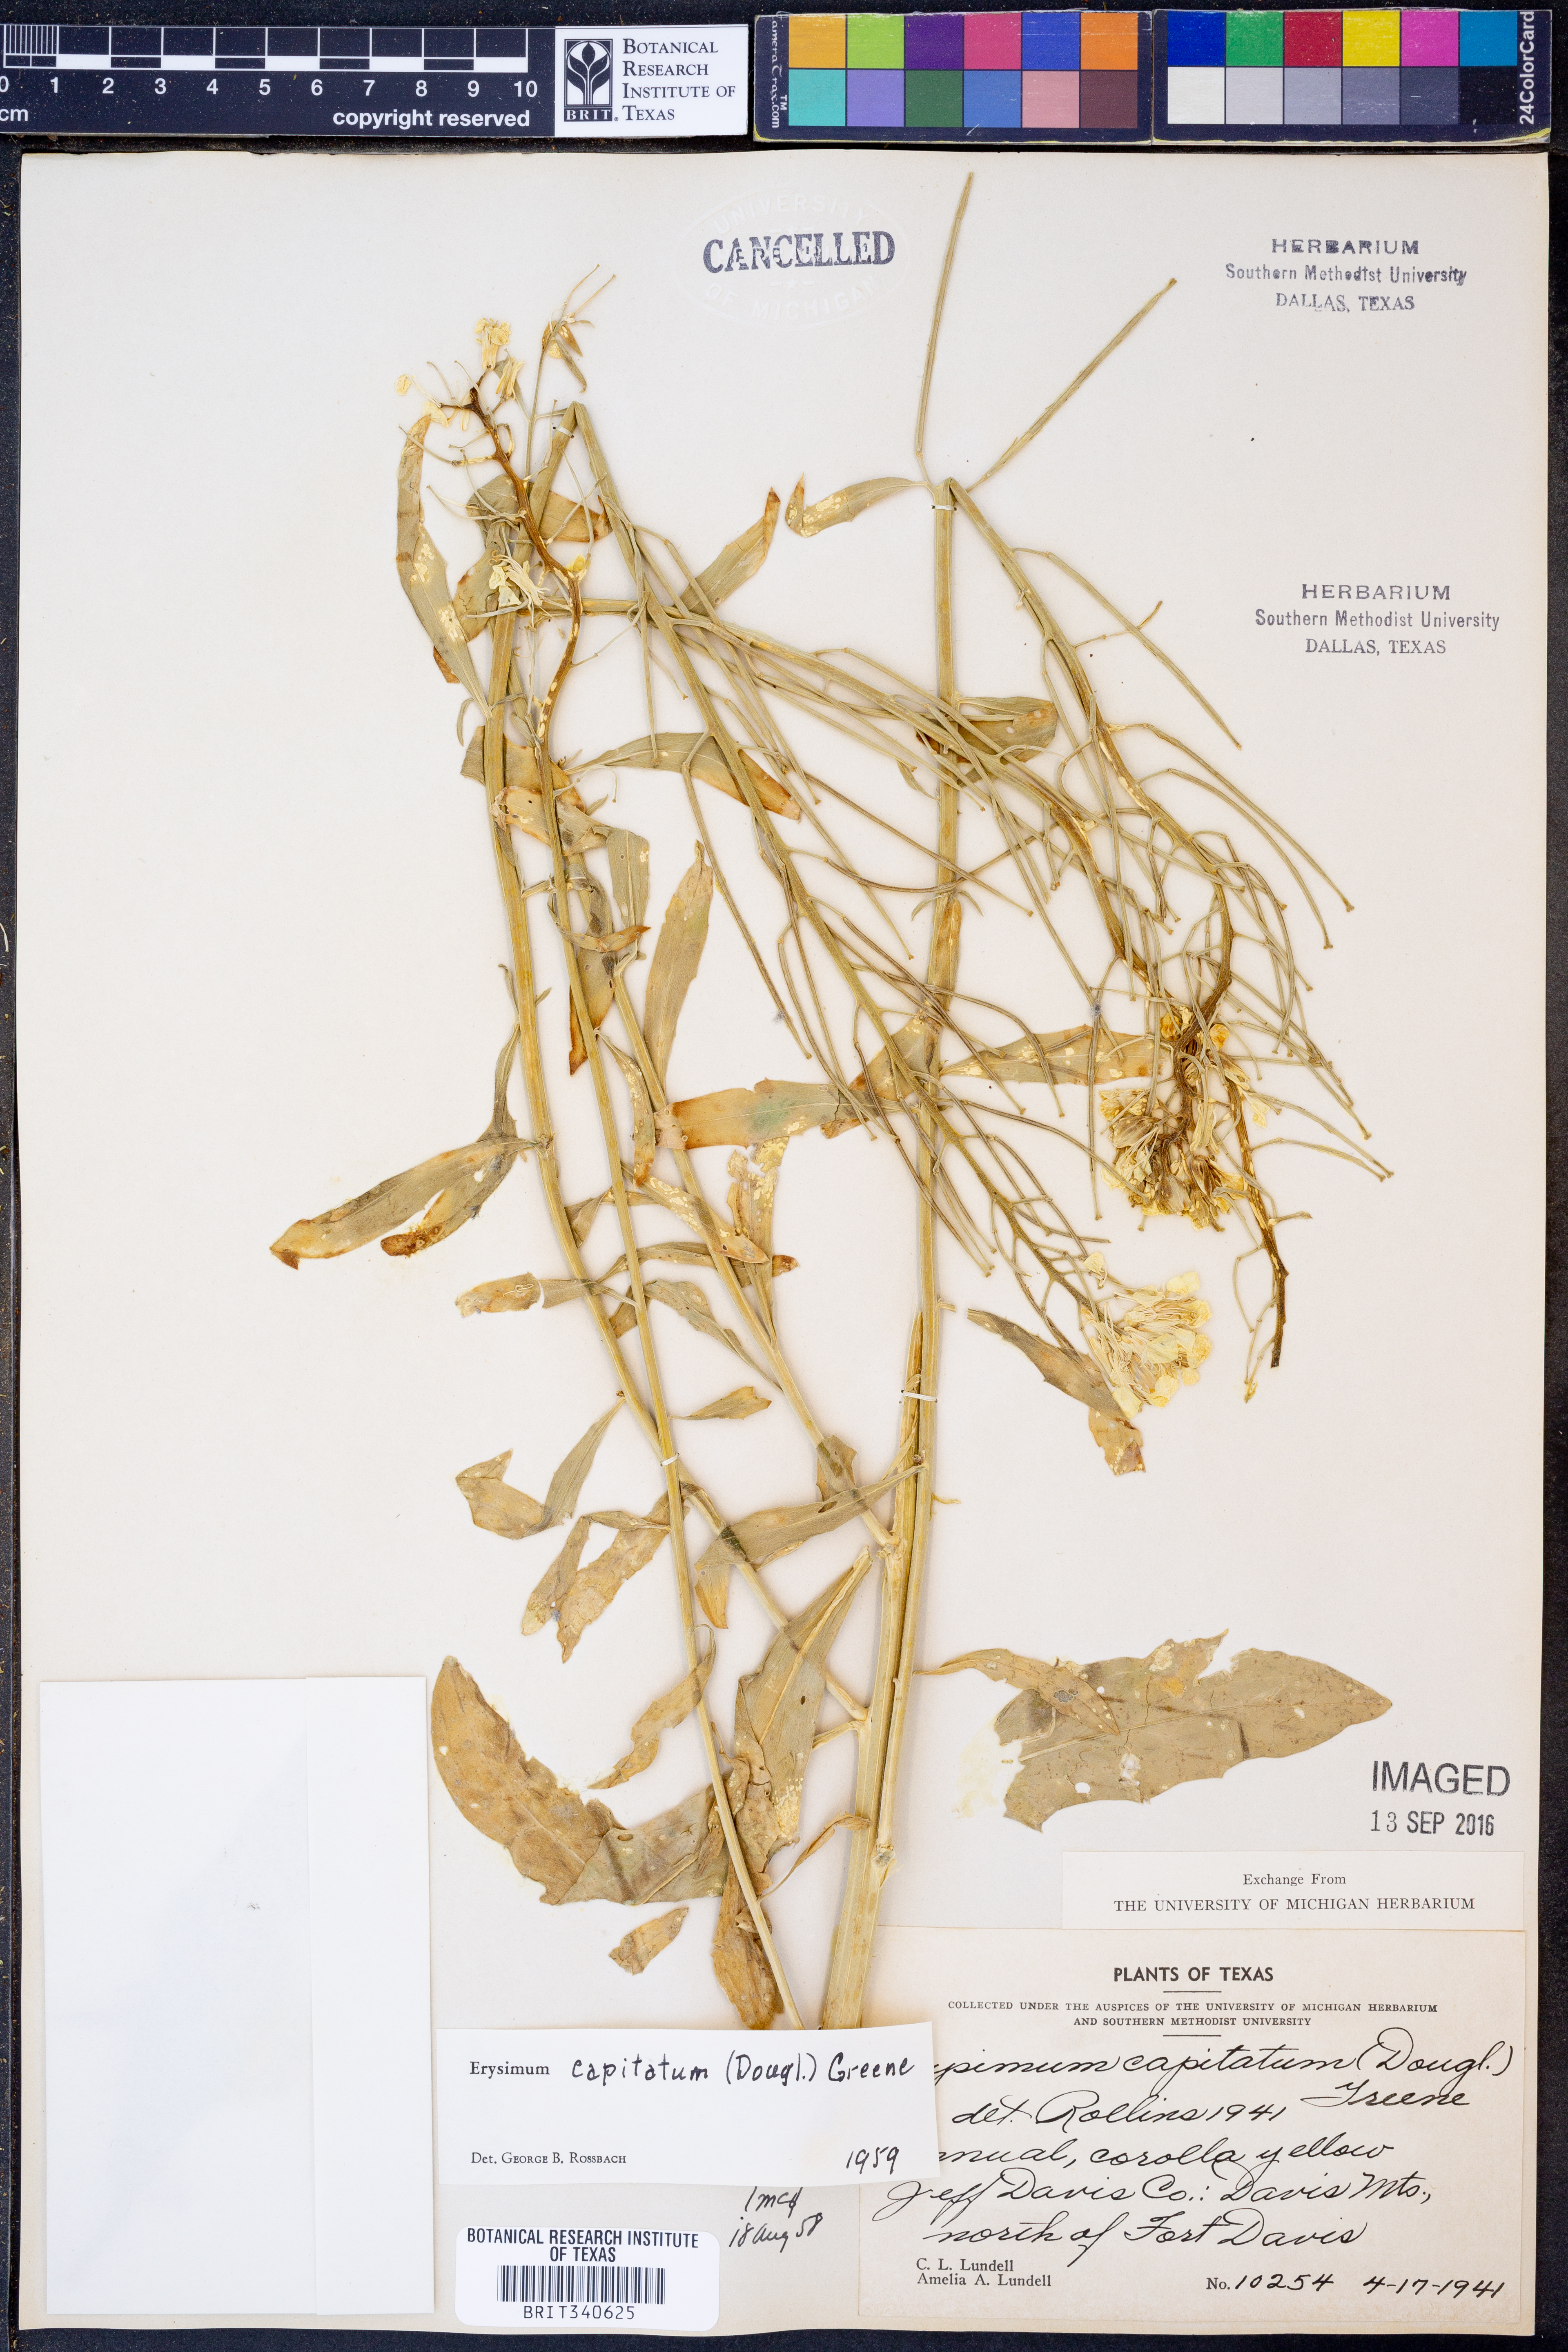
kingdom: Plantae
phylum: Tracheophyta
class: Magnoliopsida
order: Brassicales
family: Brassicaceae
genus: Erysimum
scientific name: Erysimum capitatum
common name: Western wallflower
